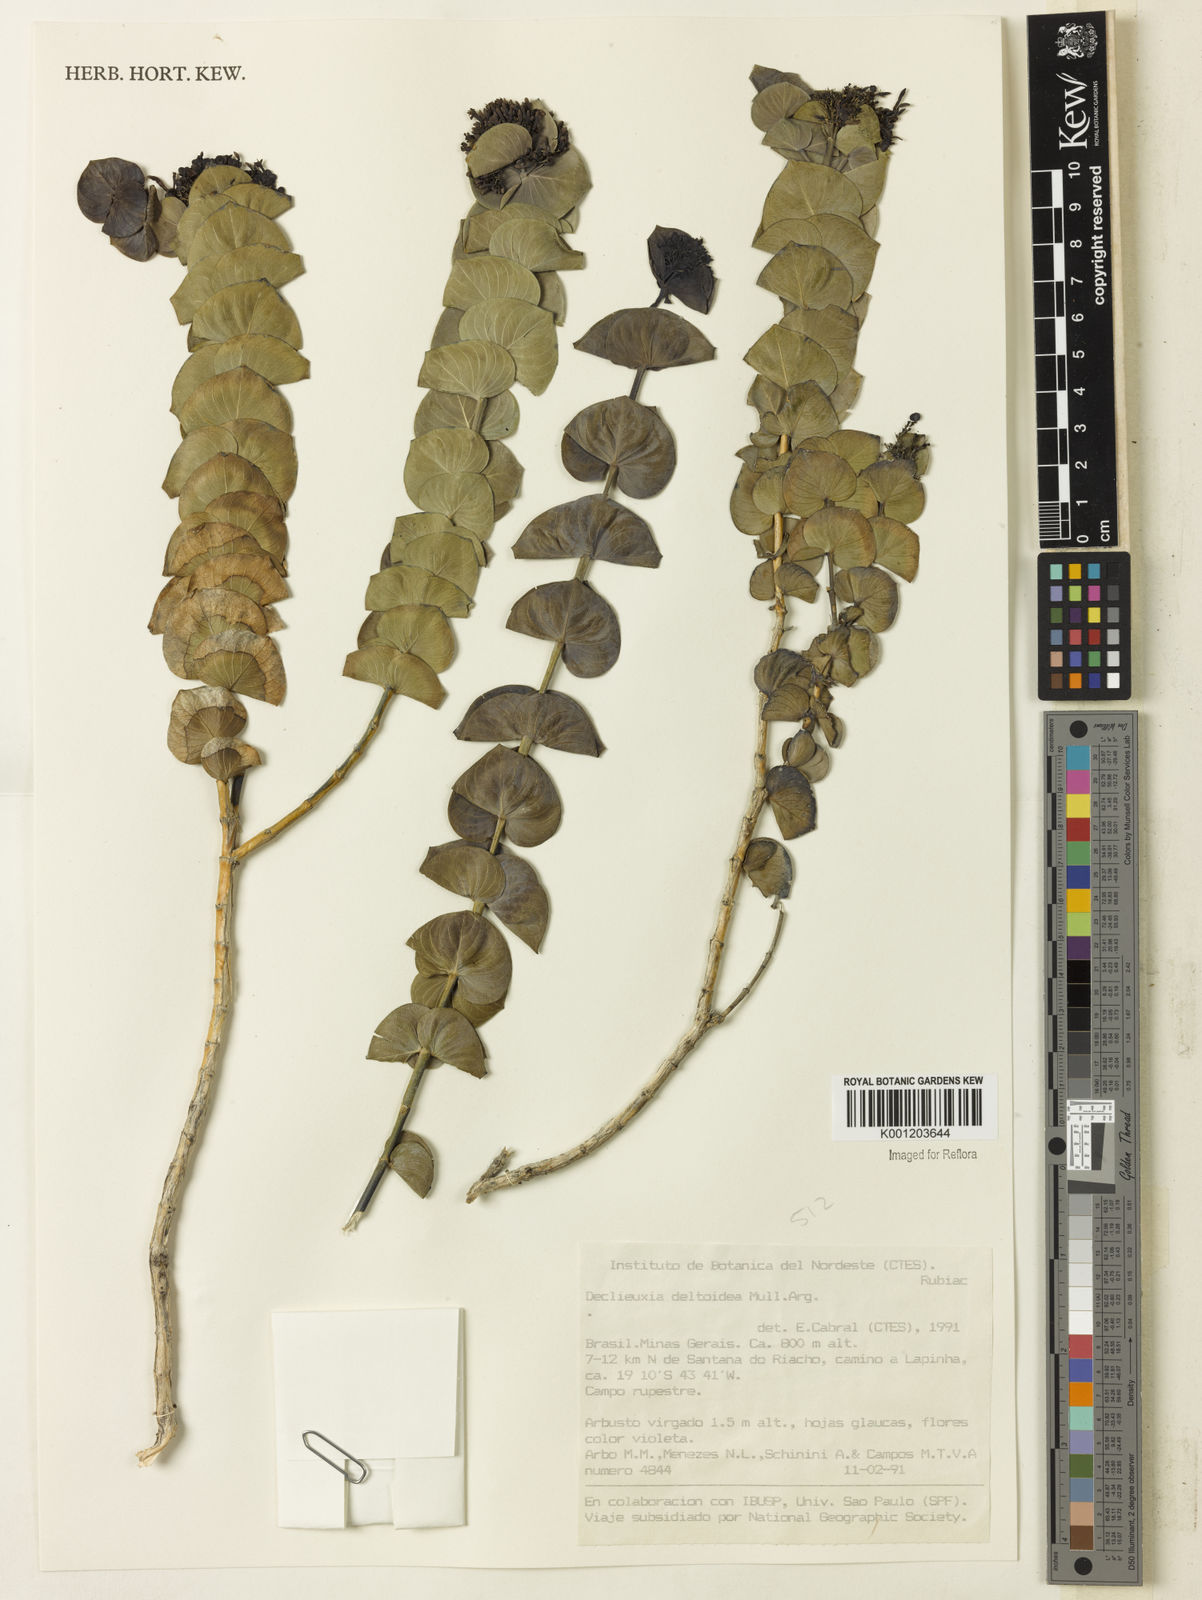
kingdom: Plantae
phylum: Tracheophyta
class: Magnoliopsida
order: Gentianales
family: Rubiaceae
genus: Declieuxia
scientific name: Declieuxia
